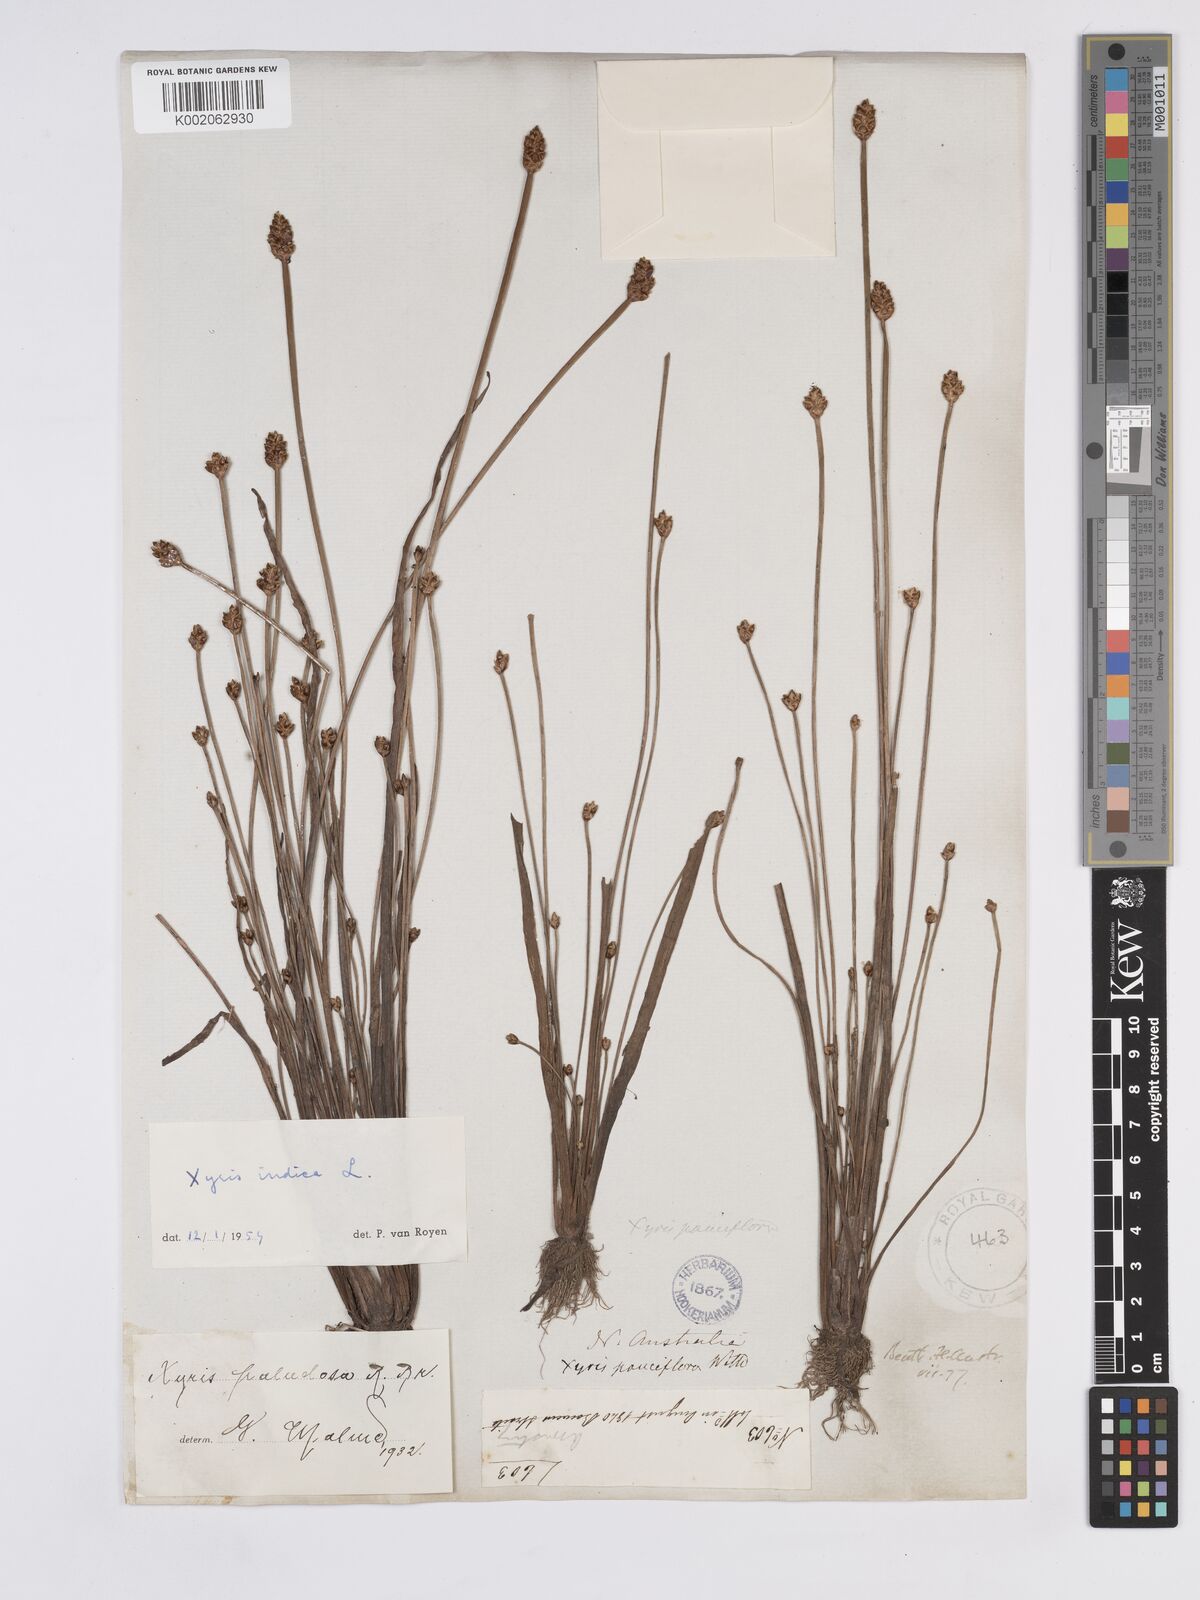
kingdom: Plantae
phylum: Tracheophyta
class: Liliopsida
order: Poales
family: Xyridaceae
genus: Xyris
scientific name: Xyris indica
